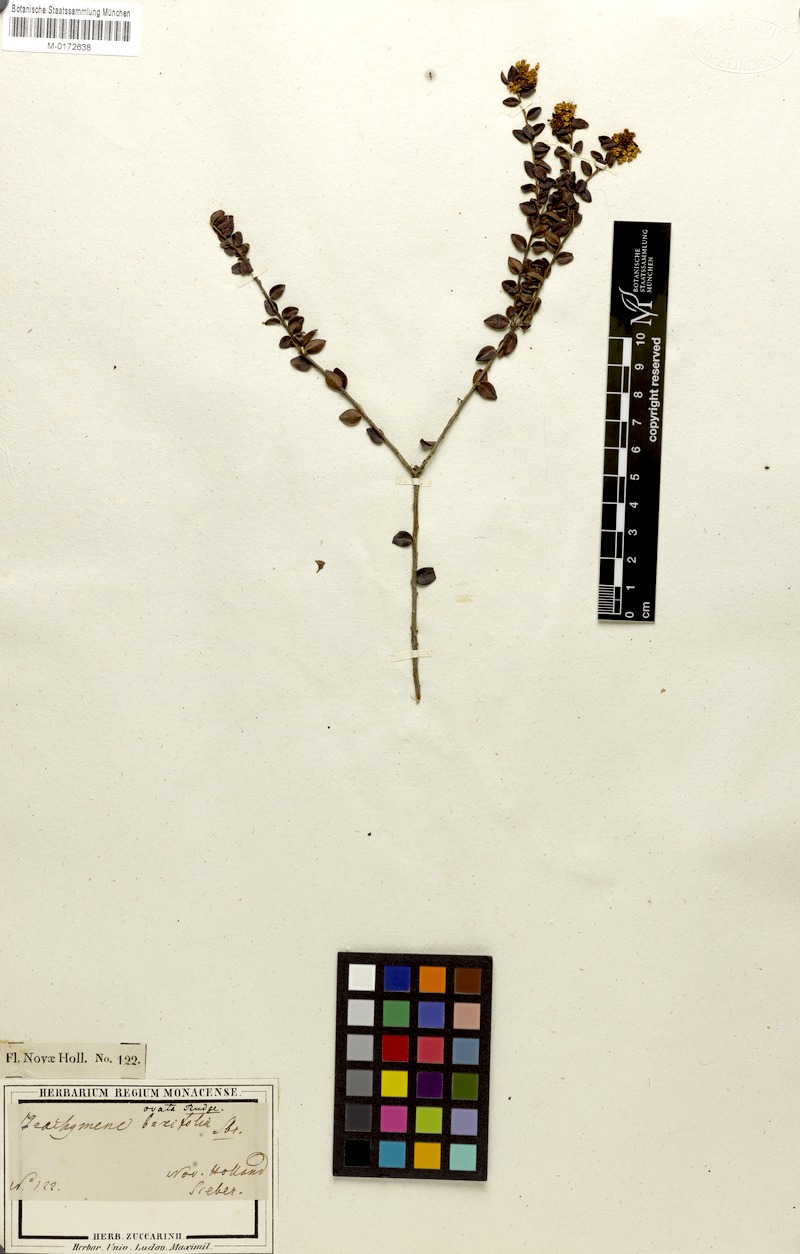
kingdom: Plantae
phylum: Tracheophyta
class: Magnoliopsida
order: Apiales
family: Araliaceae
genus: Trachymene
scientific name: Trachymene ovata
